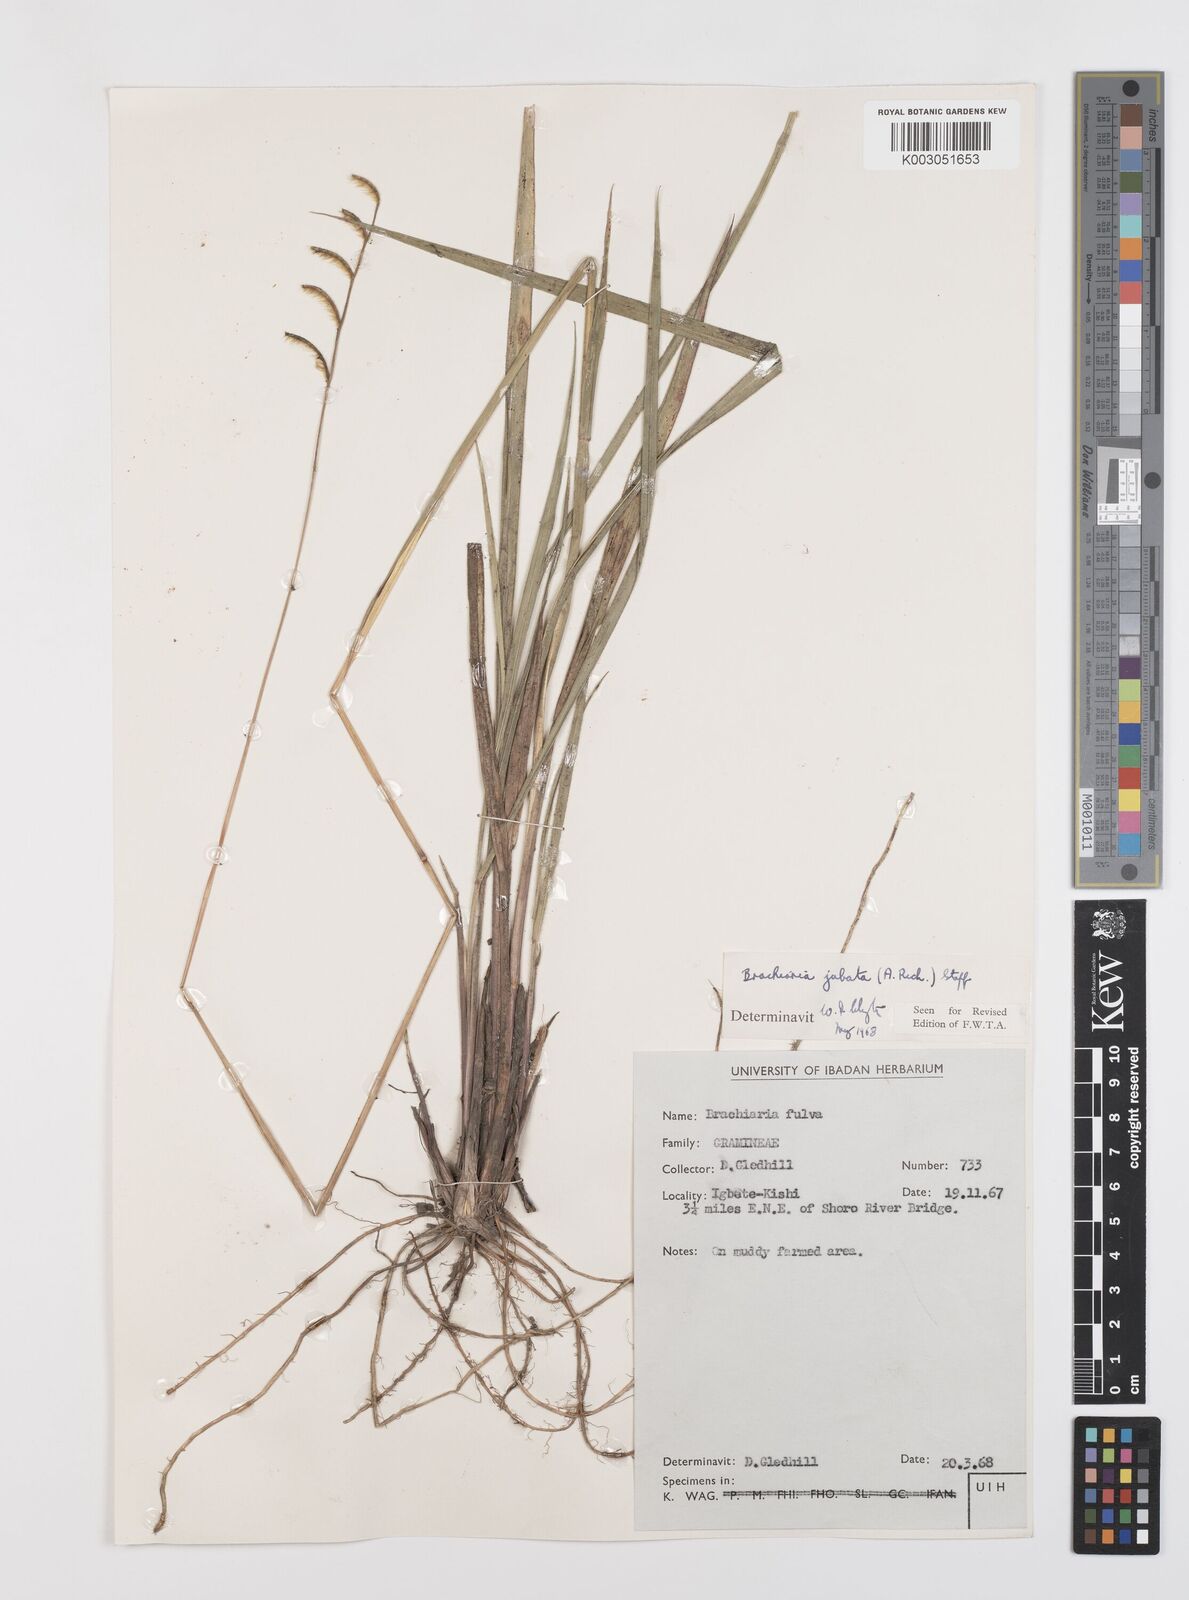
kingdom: Plantae
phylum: Tracheophyta
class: Liliopsida
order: Poales
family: Poaceae
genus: Urochloa
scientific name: Urochloa jubata
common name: Buffalograss
